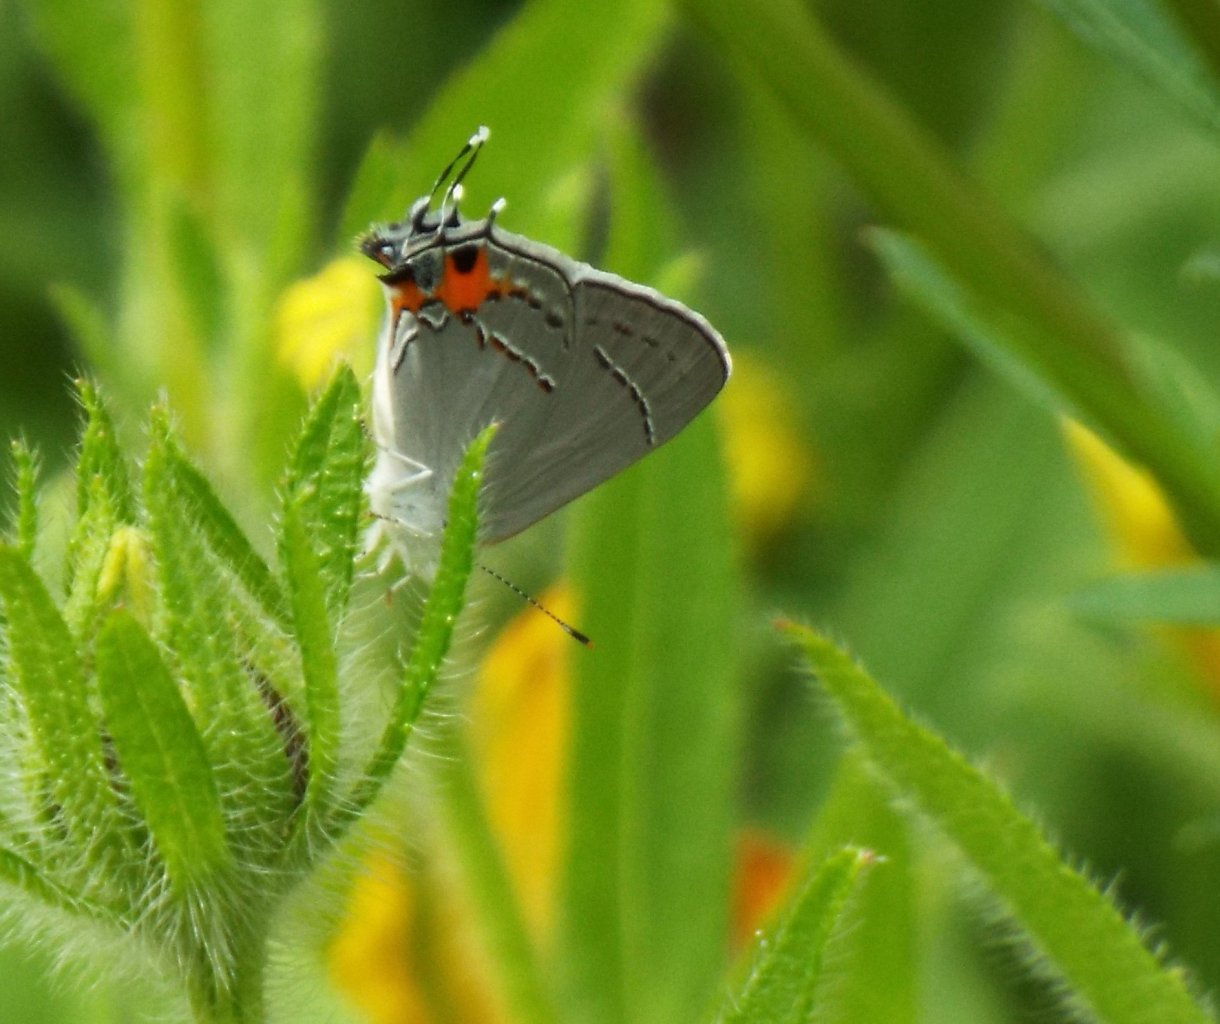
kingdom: Animalia
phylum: Arthropoda
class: Insecta
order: Lepidoptera
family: Lycaenidae
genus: Strymon
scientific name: Strymon melinus
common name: Gray Hairstreak
